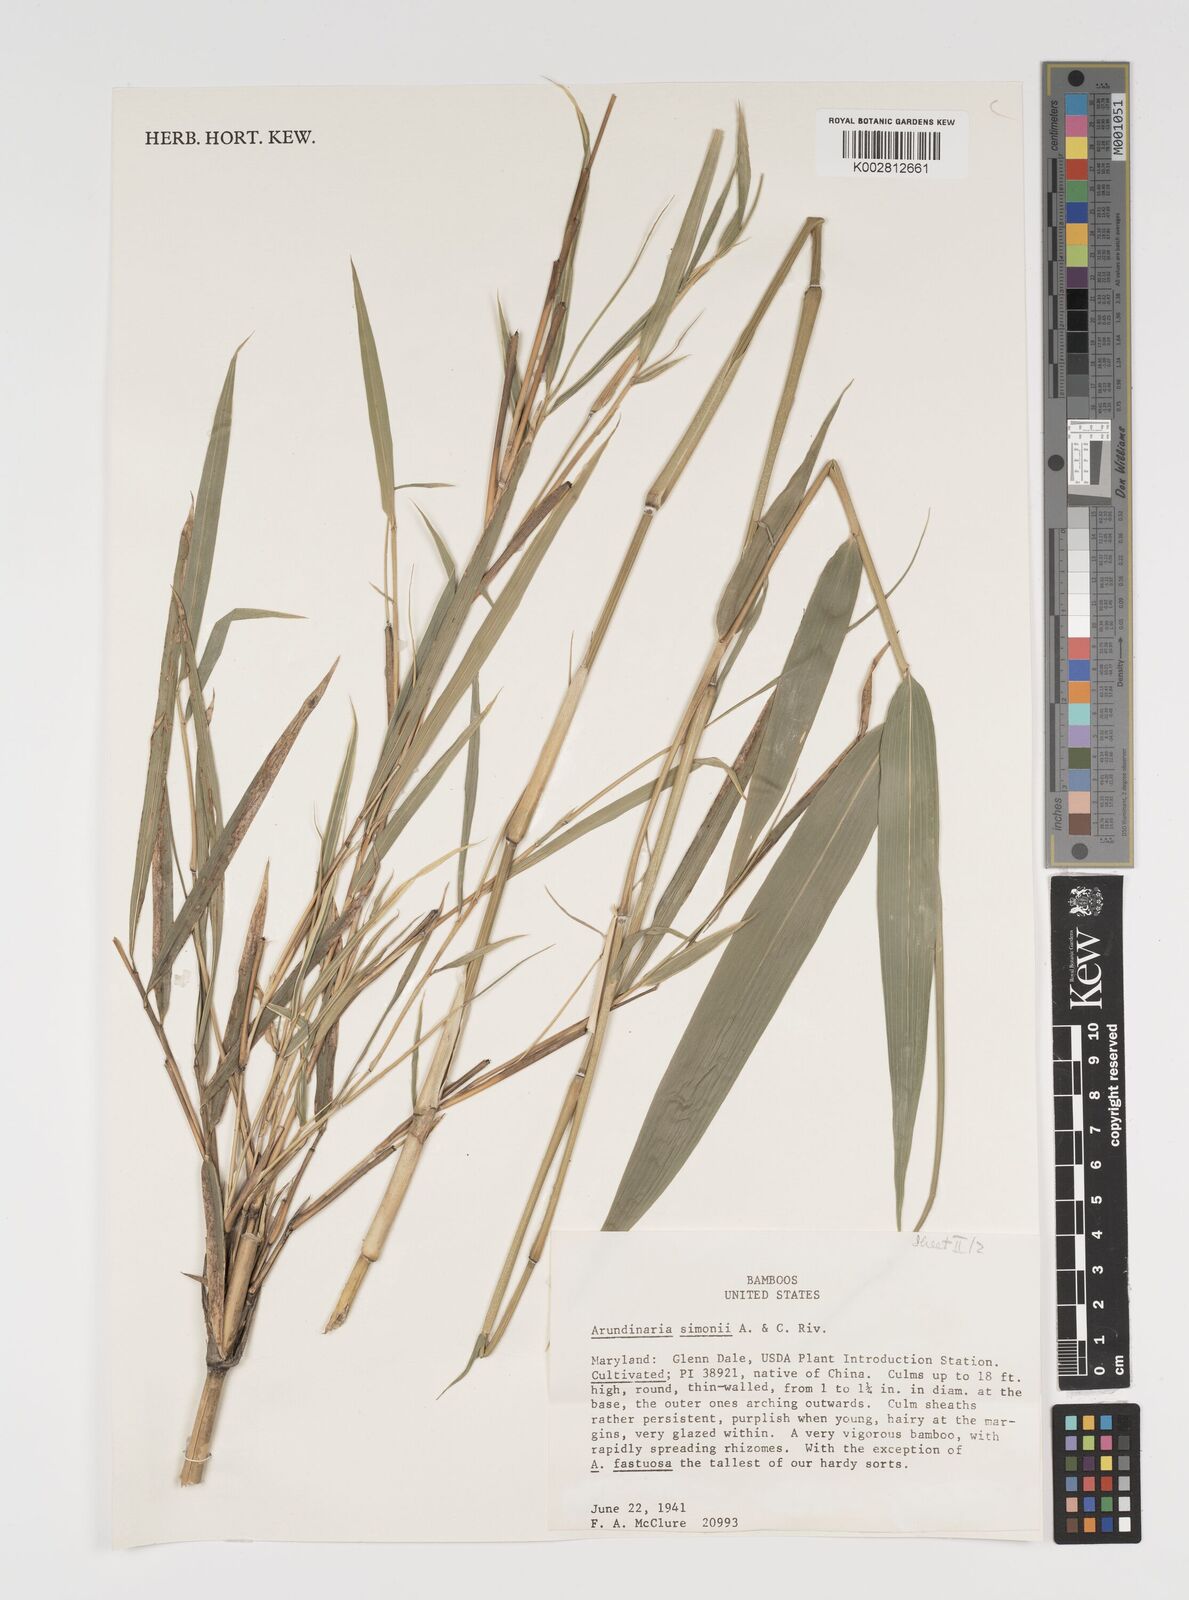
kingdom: Plantae
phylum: Tracheophyta
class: Liliopsida
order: Poales
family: Poaceae
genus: Pleioblastus
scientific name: Pleioblastus simonii
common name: Simon bamboo
